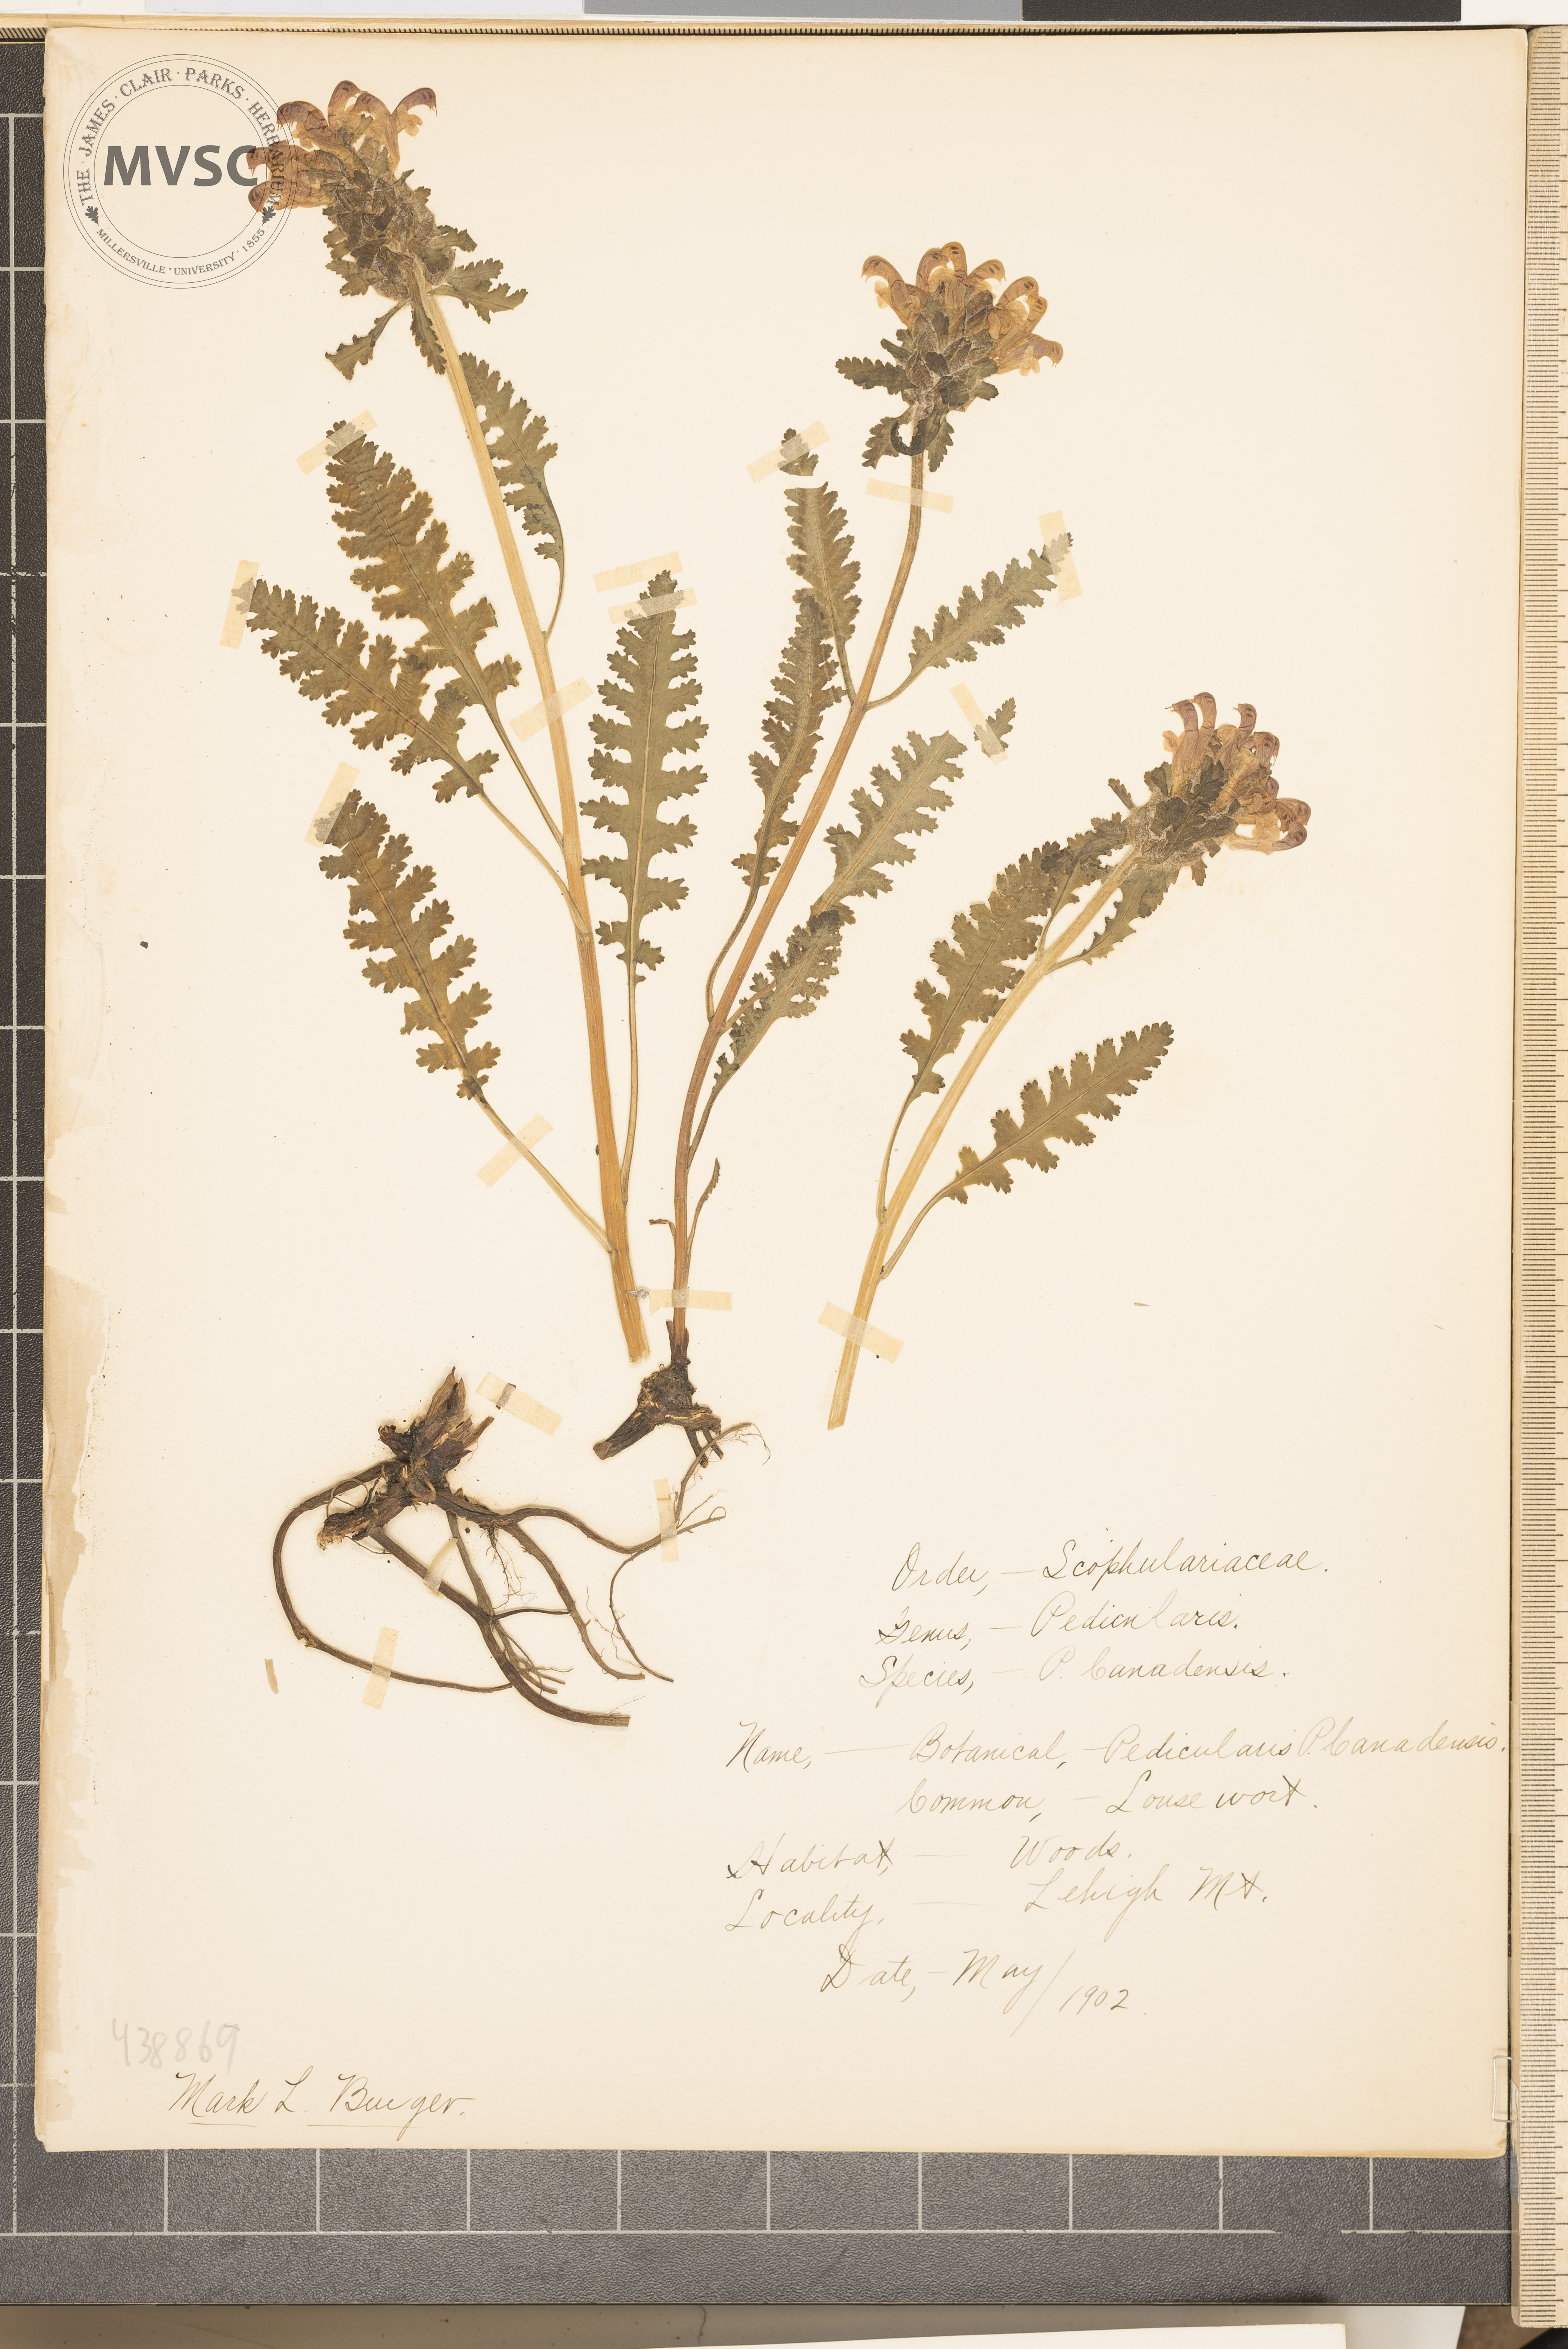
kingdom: Plantae
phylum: Tracheophyta
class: Magnoliopsida
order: Lamiales
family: Orobanchaceae
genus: Pedicularis
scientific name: Pedicularis canadensis
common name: Lousewort
